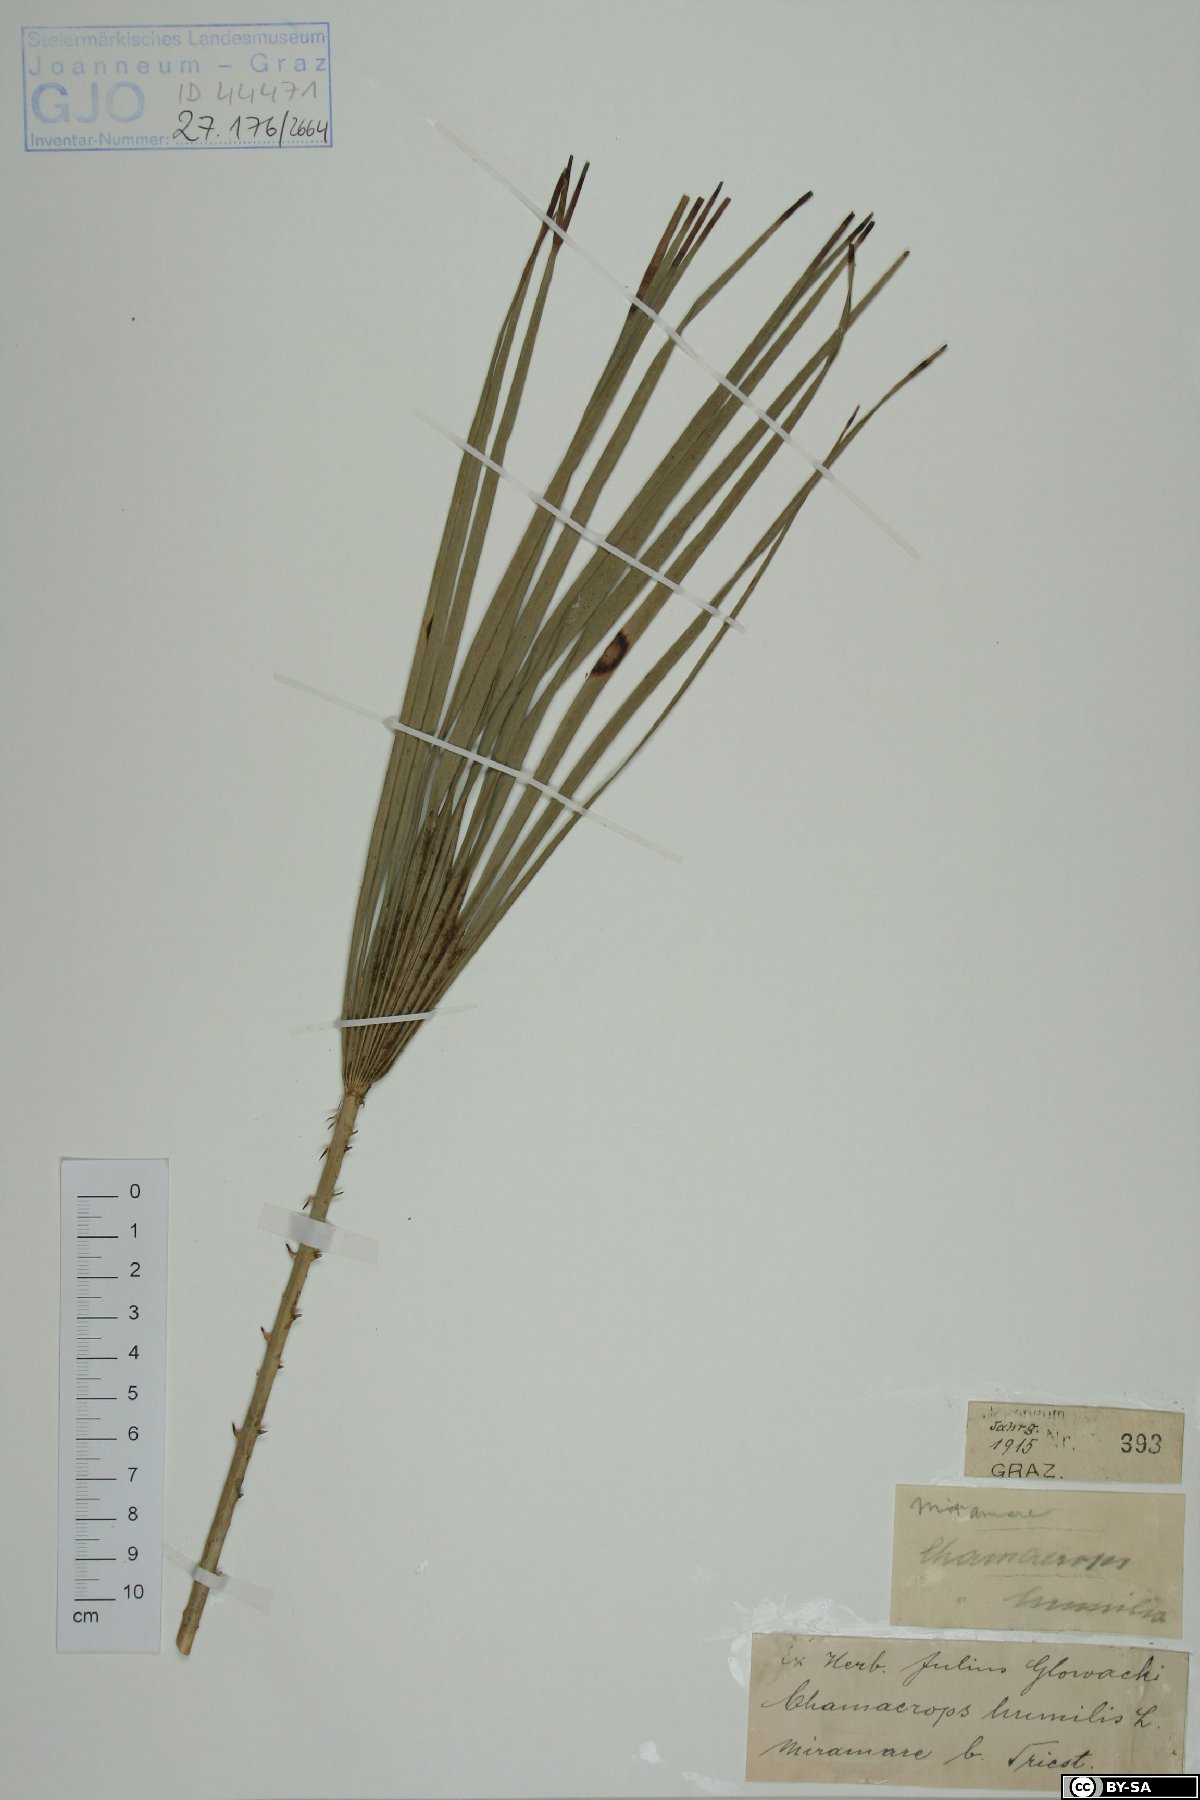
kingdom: Plantae
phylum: Tracheophyta
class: Liliopsida
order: Arecales
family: Arecaceae
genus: Chamaerops
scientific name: Chamaerops humilis
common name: Dwarf fan palm
